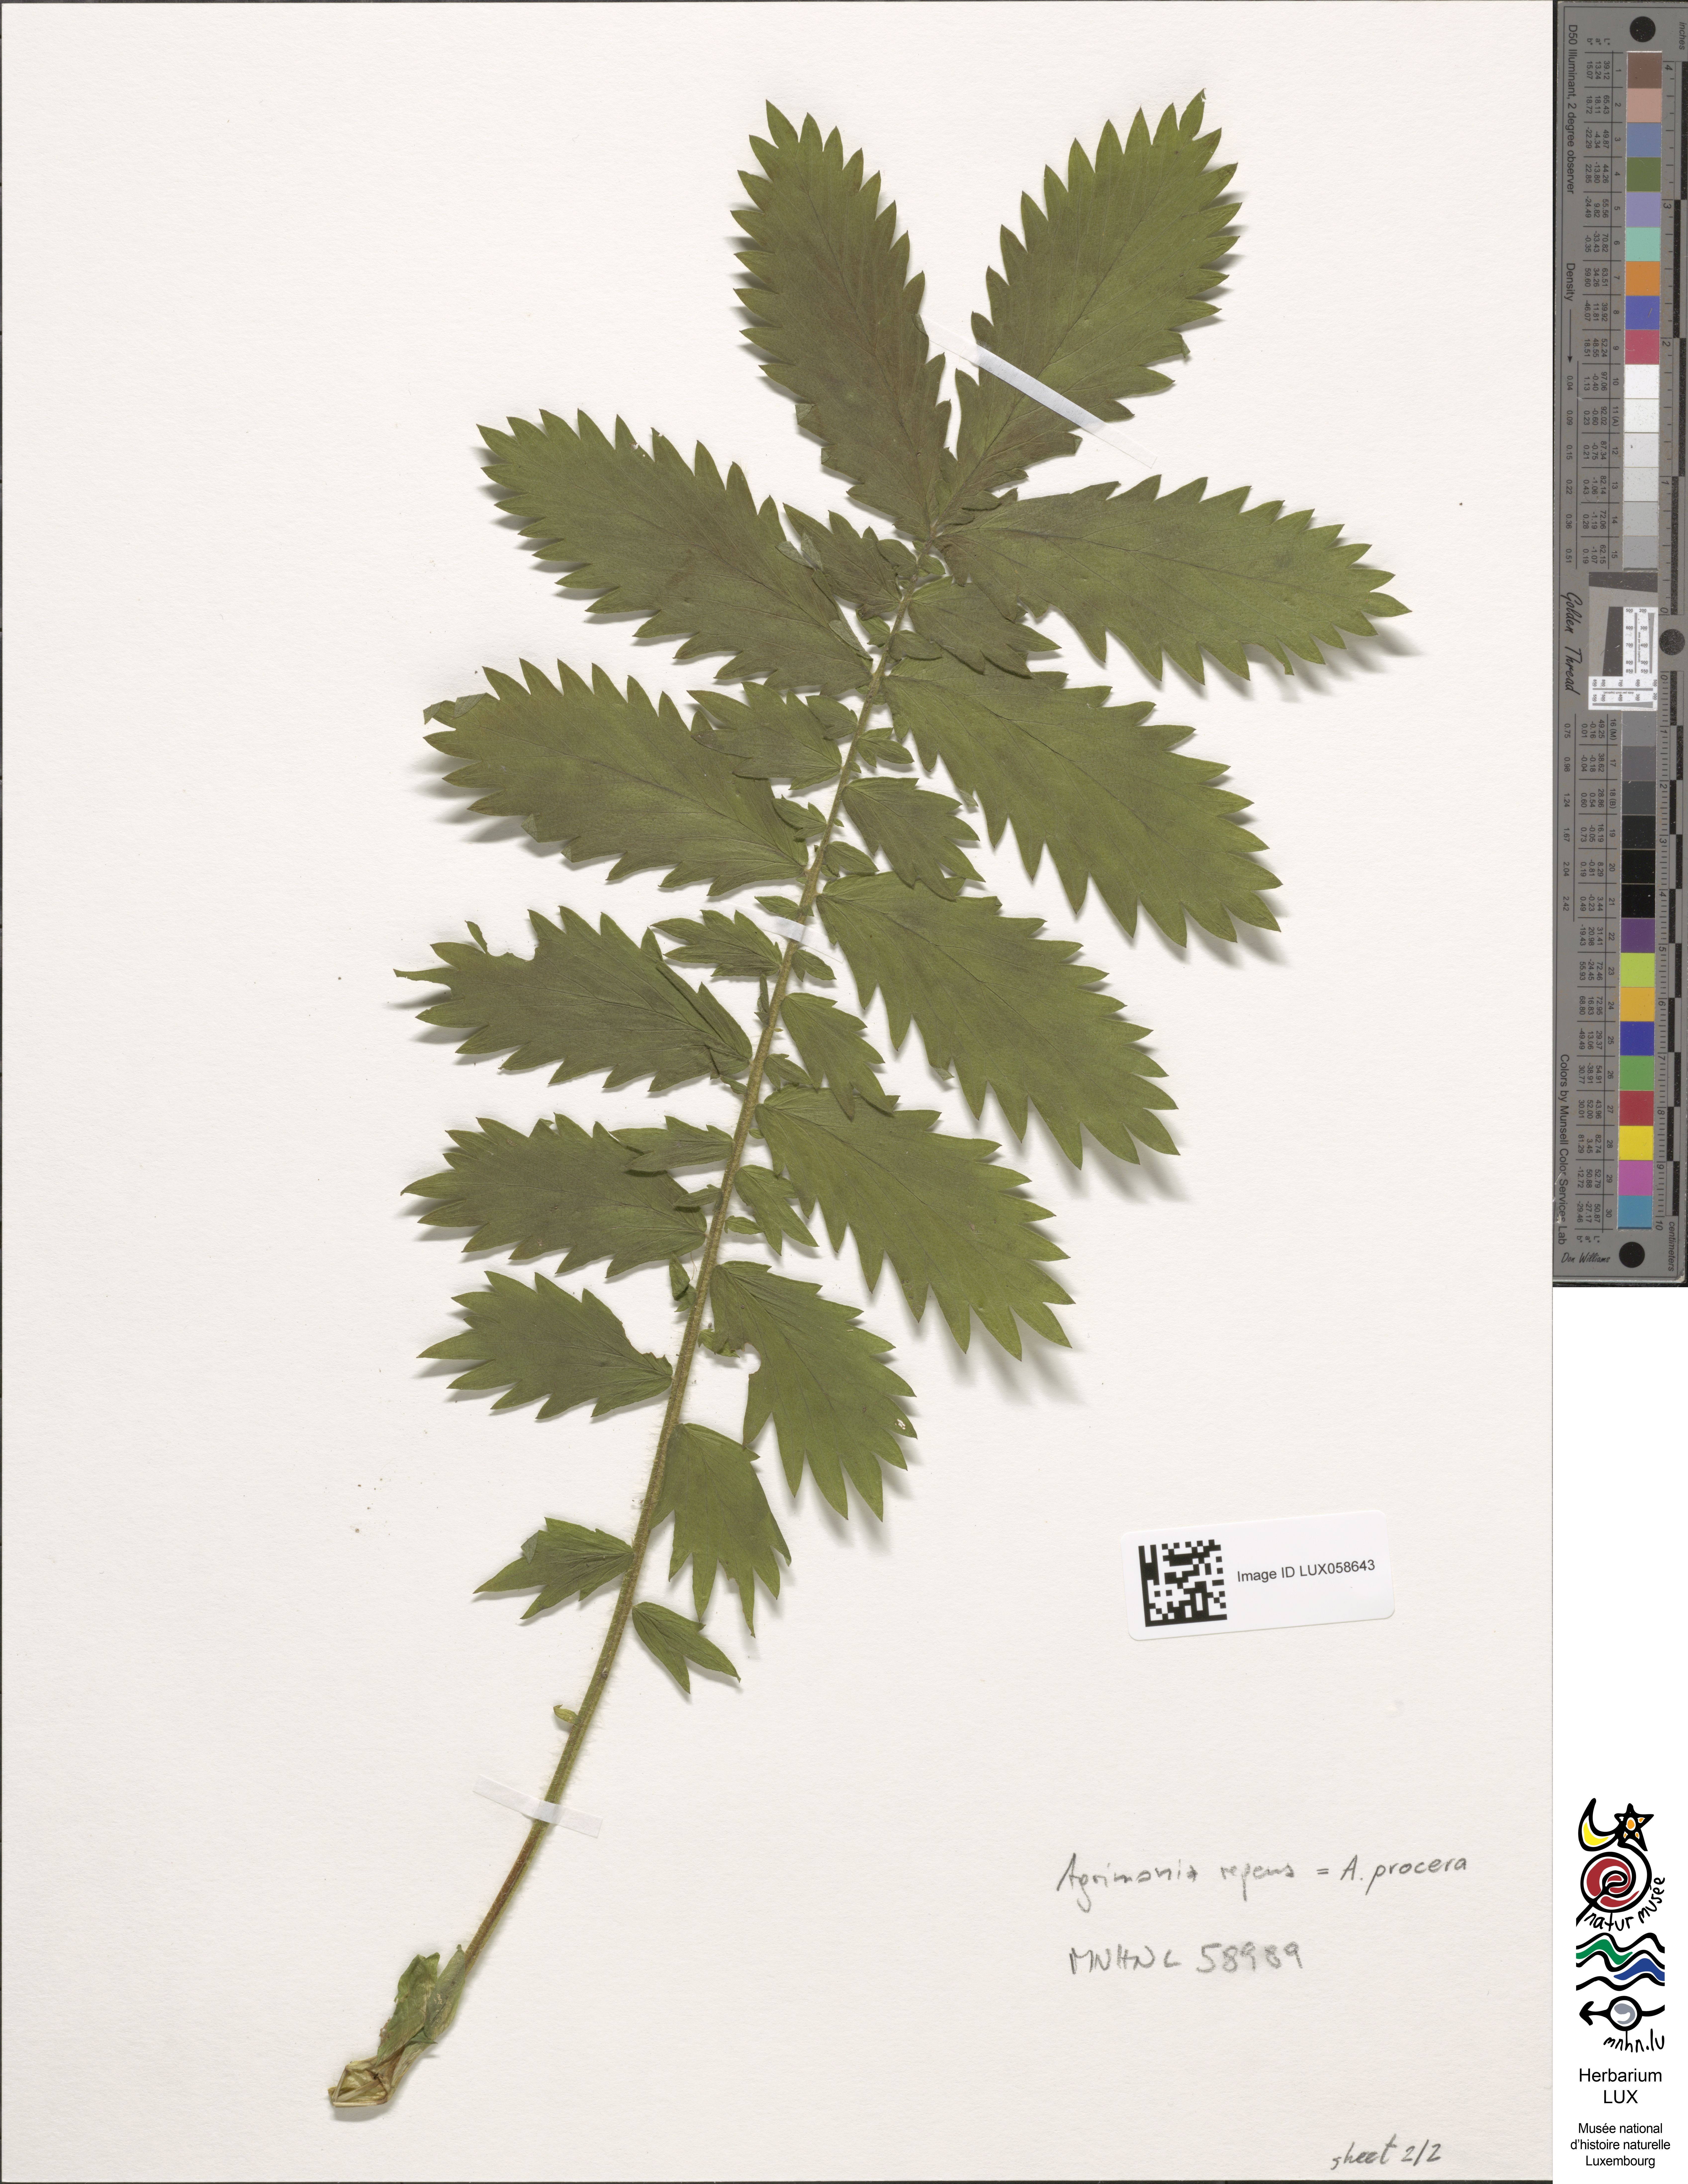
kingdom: Plantae
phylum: Tracheophyta
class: Magnoliopsida
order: Rosales
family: Rosaceae
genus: Agrimonia
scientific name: Agrimonia repens
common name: Creeping agrimony
